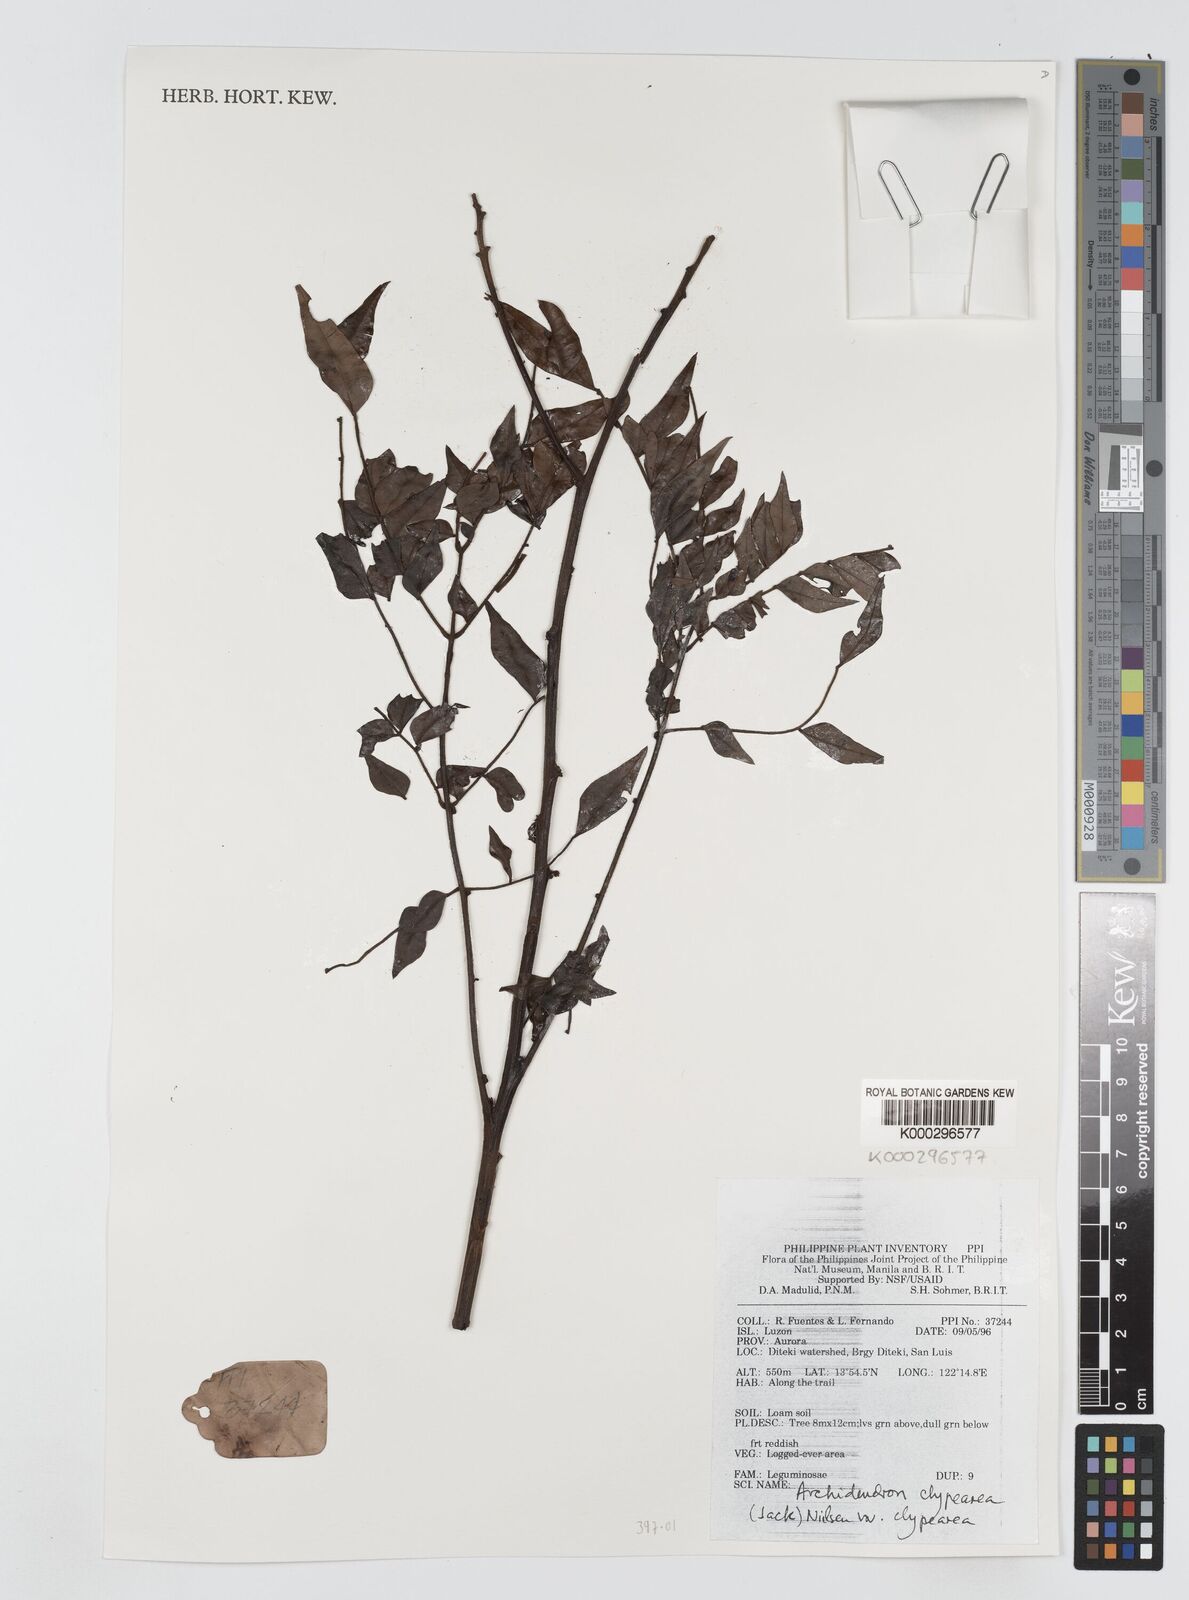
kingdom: Plantae
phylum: Tracheophyta
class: Magnoliopsida
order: Fabales
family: Fabaceae
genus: Archidendron
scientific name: Archidendron clypearia
